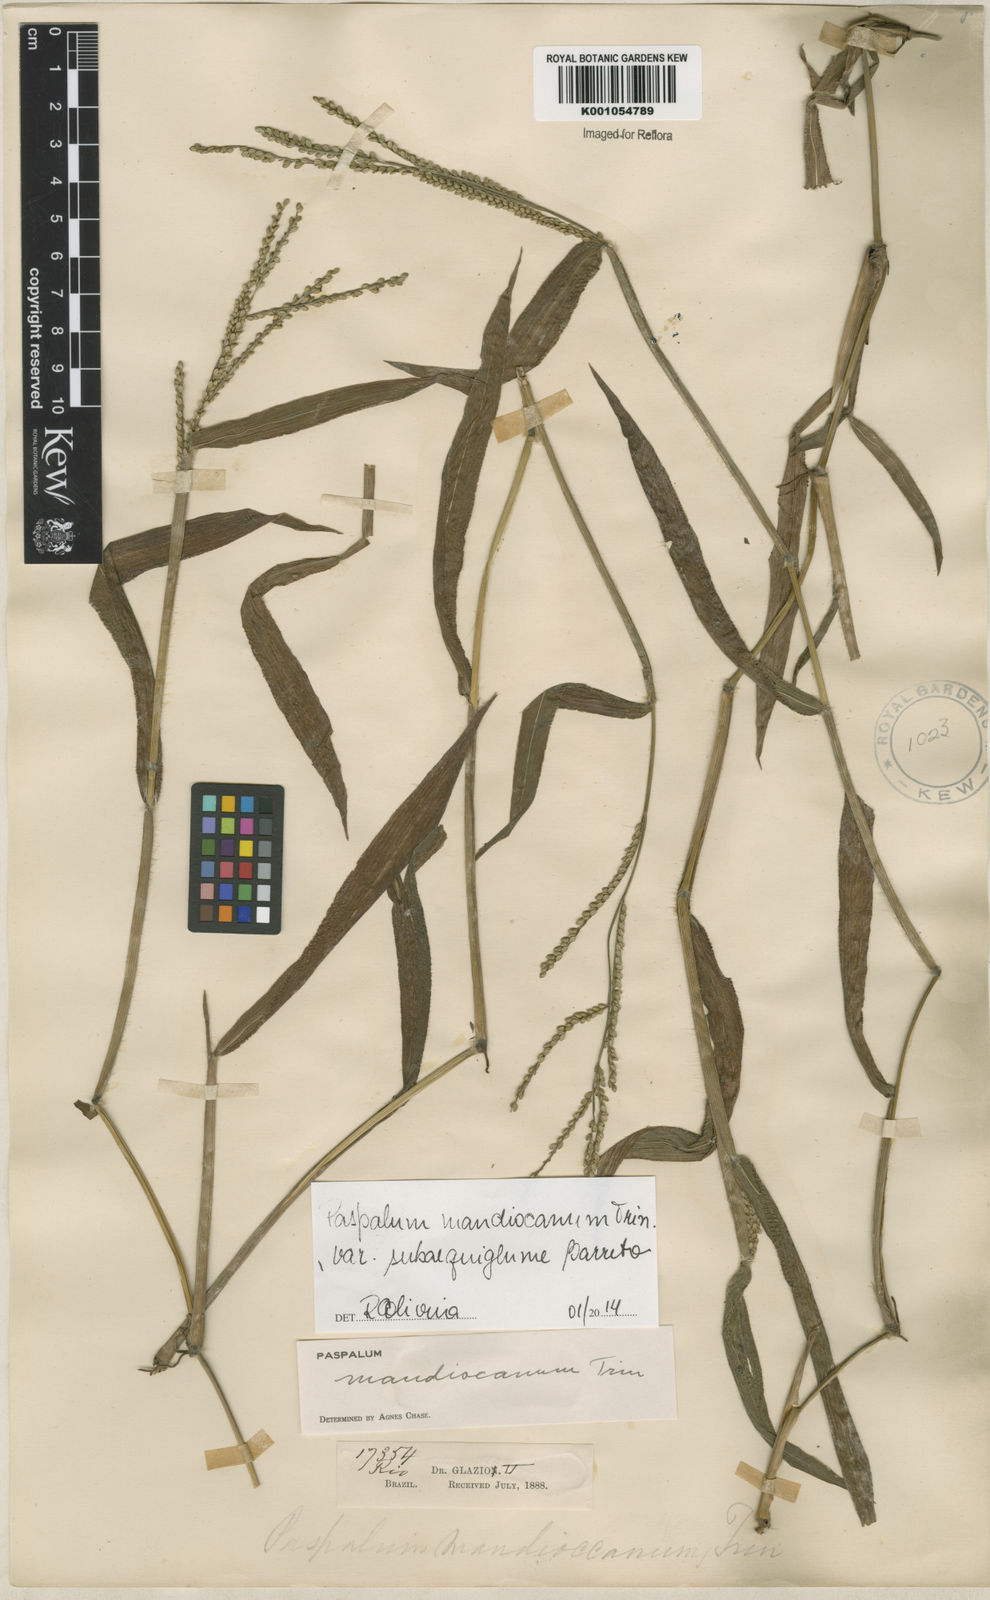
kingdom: Plantae
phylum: Tracheophyta
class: Liliopsida
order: Poales
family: Poaceae
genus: Paspalum
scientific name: Paspalum mandiocanum
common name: Paspalum
